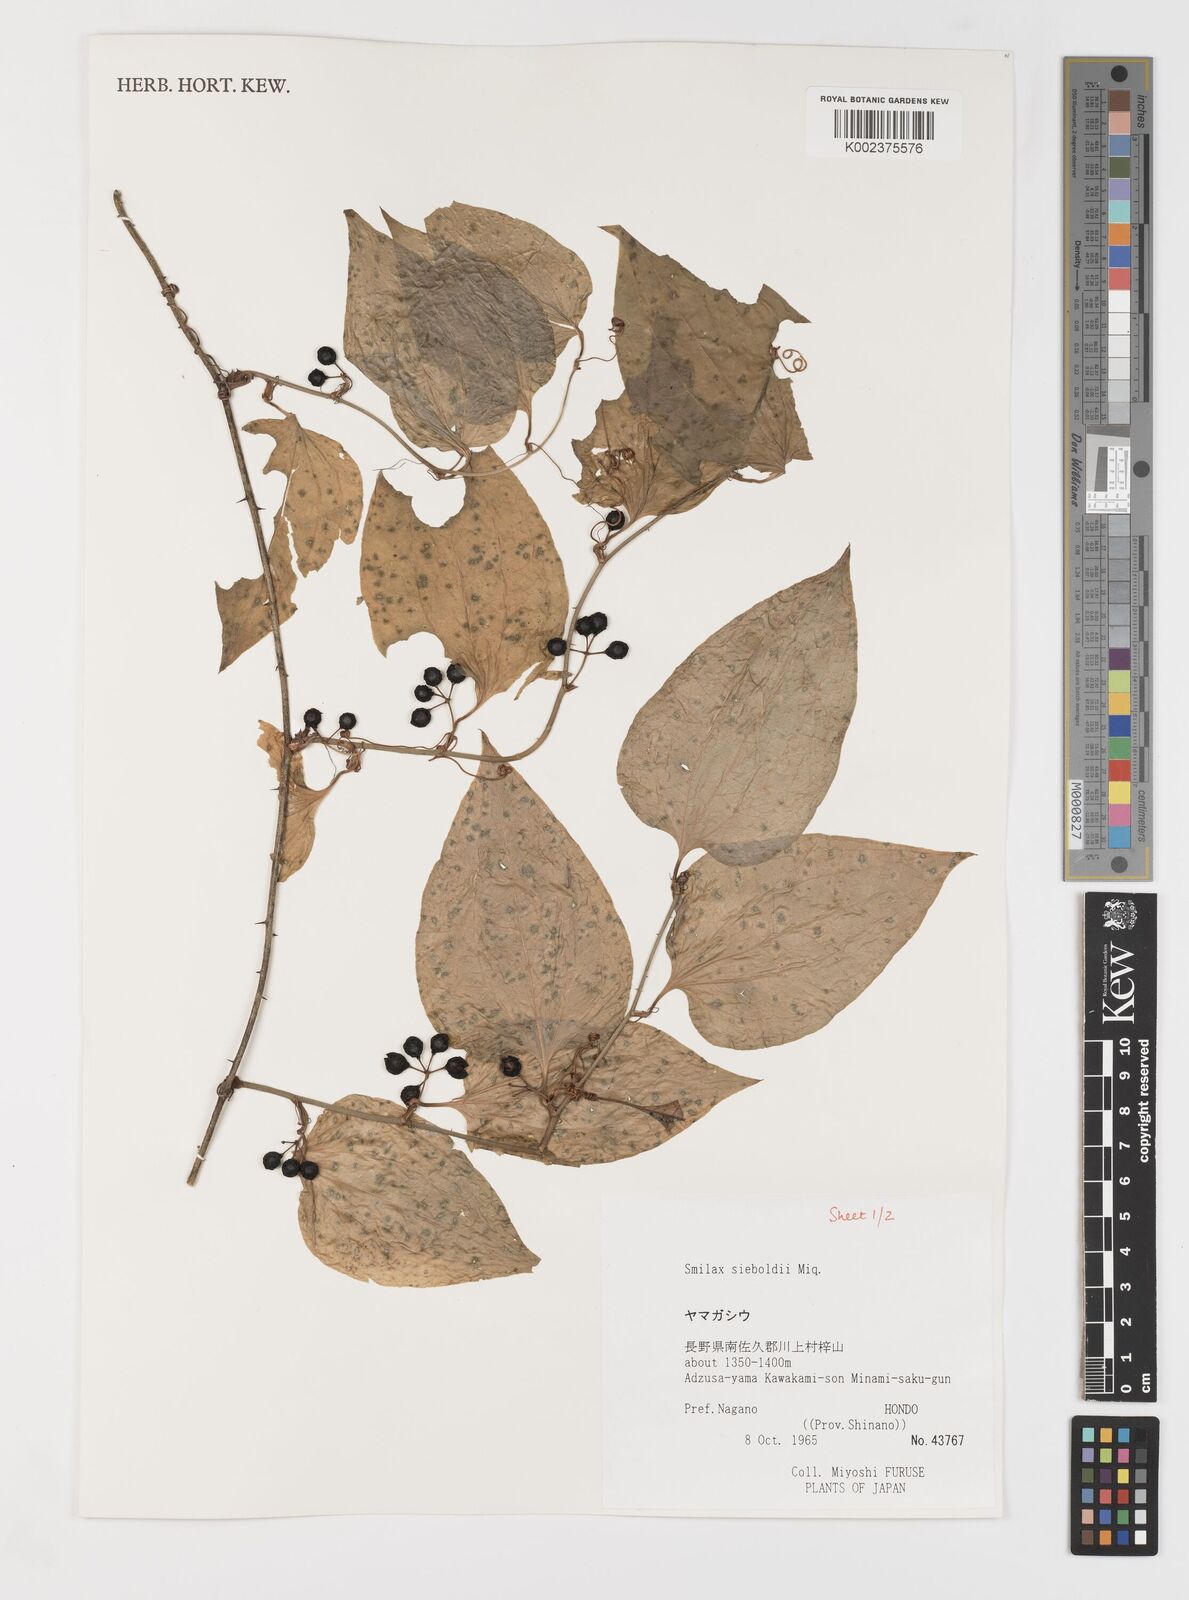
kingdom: Plantae
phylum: Tracheophyta
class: Liliopsida
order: Liliales
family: Smilacaceae
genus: Smilax
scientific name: Smilax sieboldii
